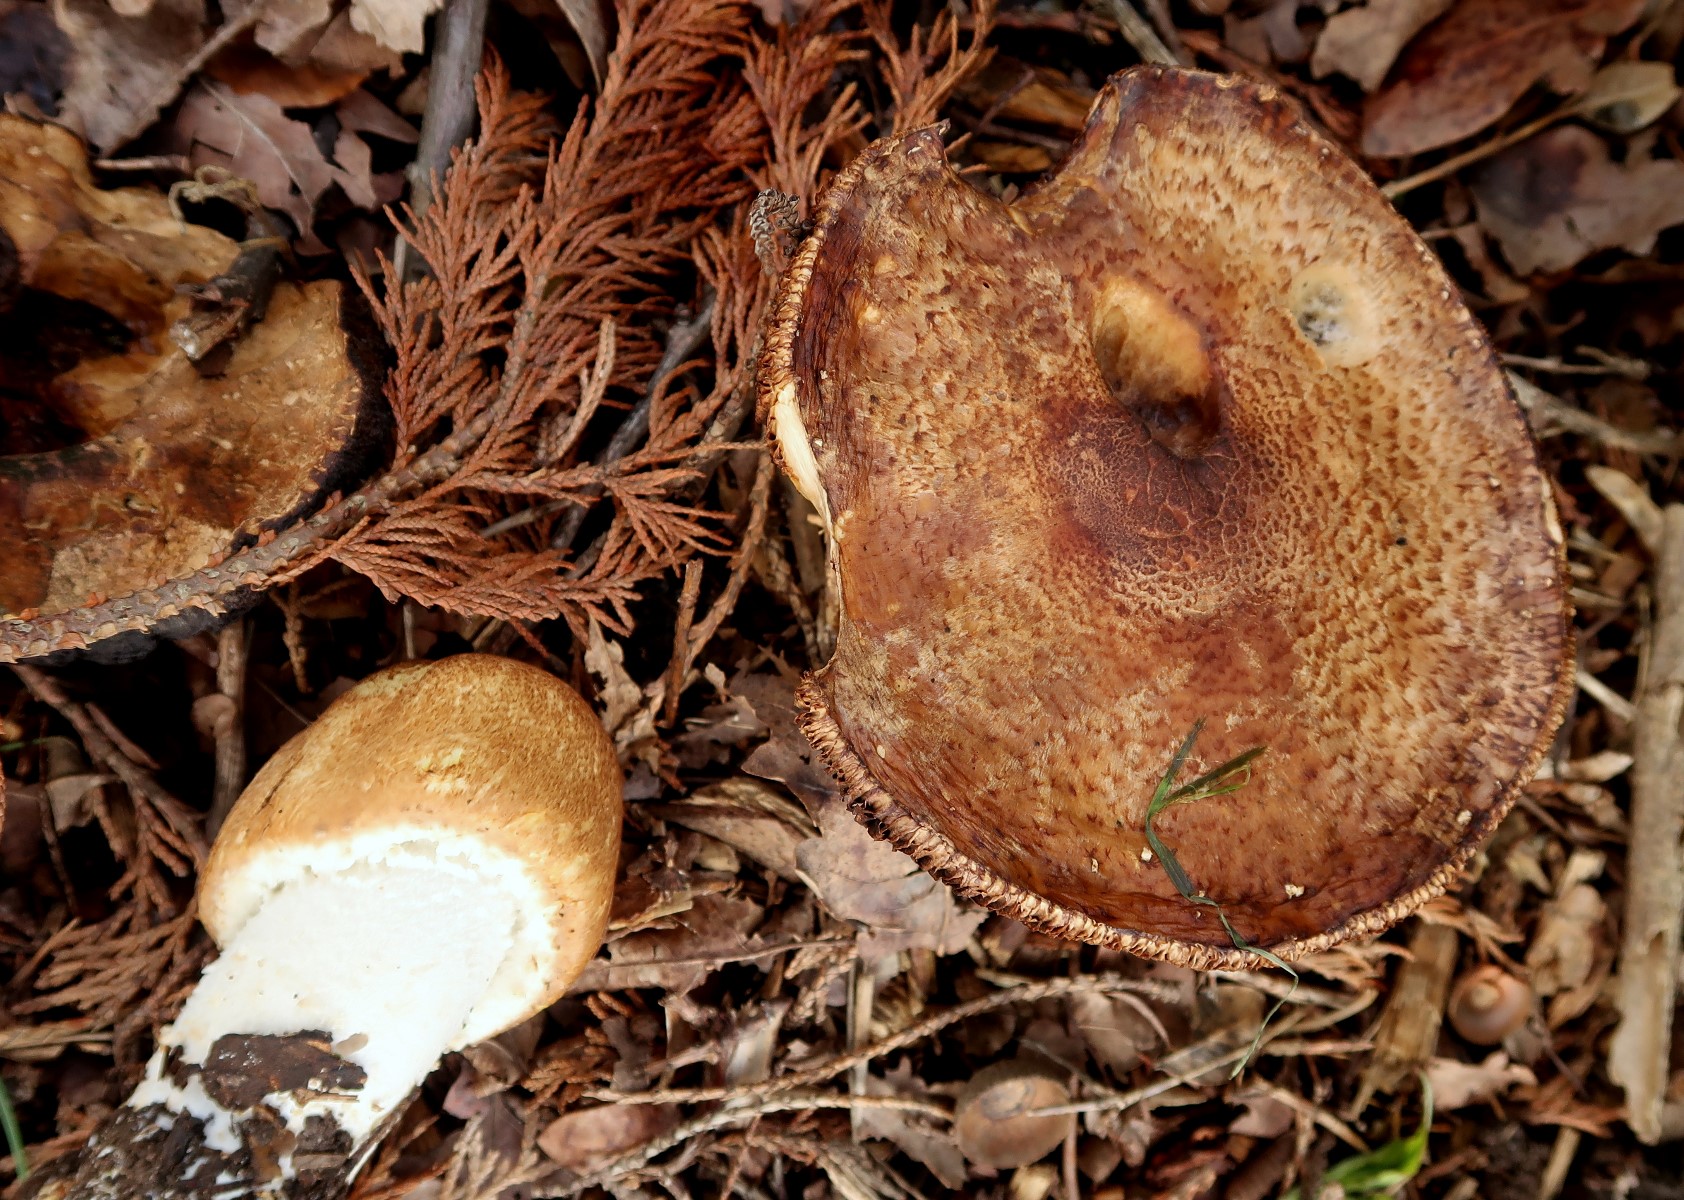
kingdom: Fungi
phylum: Basidiomycota
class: Agaricomycetes
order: Agaricales
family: Agaricaceae
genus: Agaricus
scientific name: Agaricus augustus
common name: prægtig champignon
